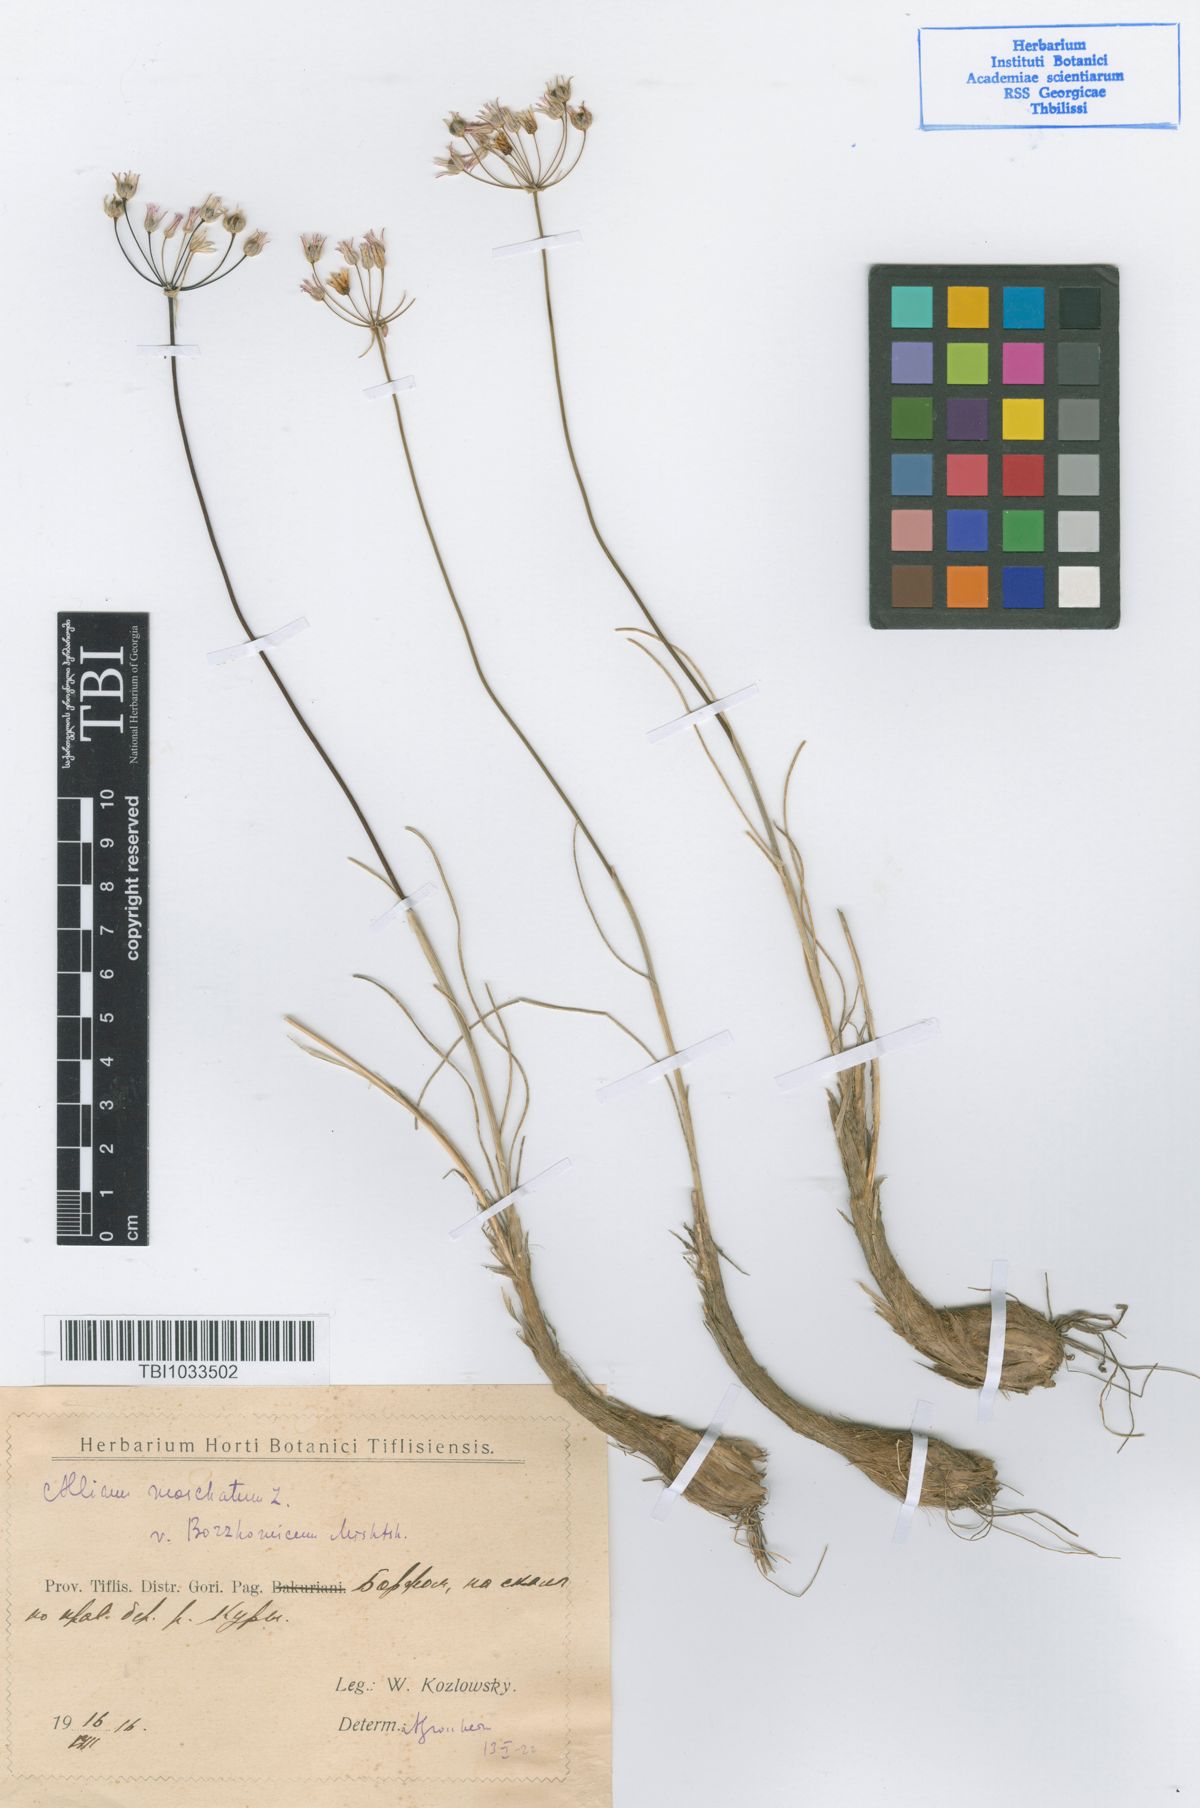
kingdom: Plantae
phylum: Tracheophyta
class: Liliopsida
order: Asparagales
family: Amaryllidaceae
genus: Allium
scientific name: Allium moschatum
